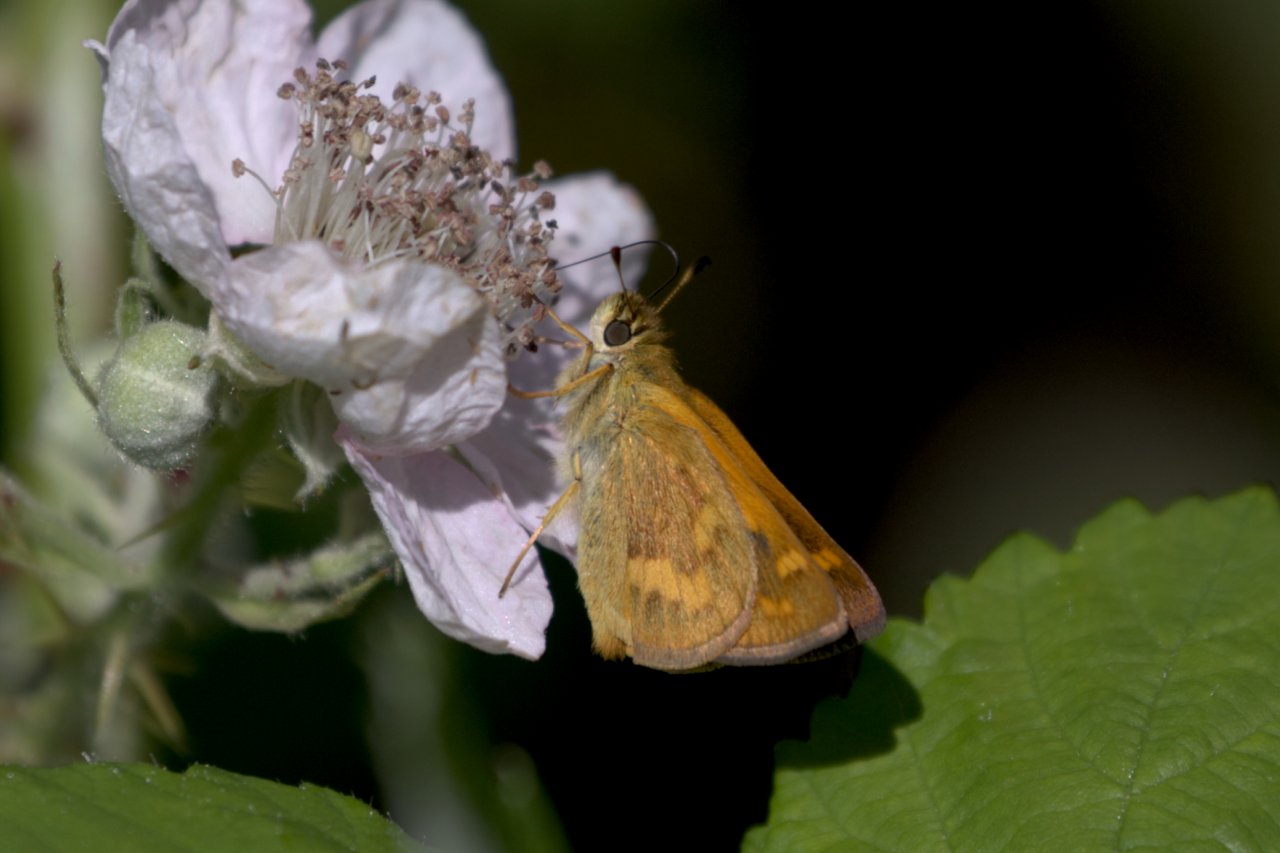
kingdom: Animalia
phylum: Arthropoda
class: Insecta
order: Lepidoptera
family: Hesperiidae
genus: Ochlodes
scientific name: Ochlodes sylvanoides
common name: Woodland Skipper
